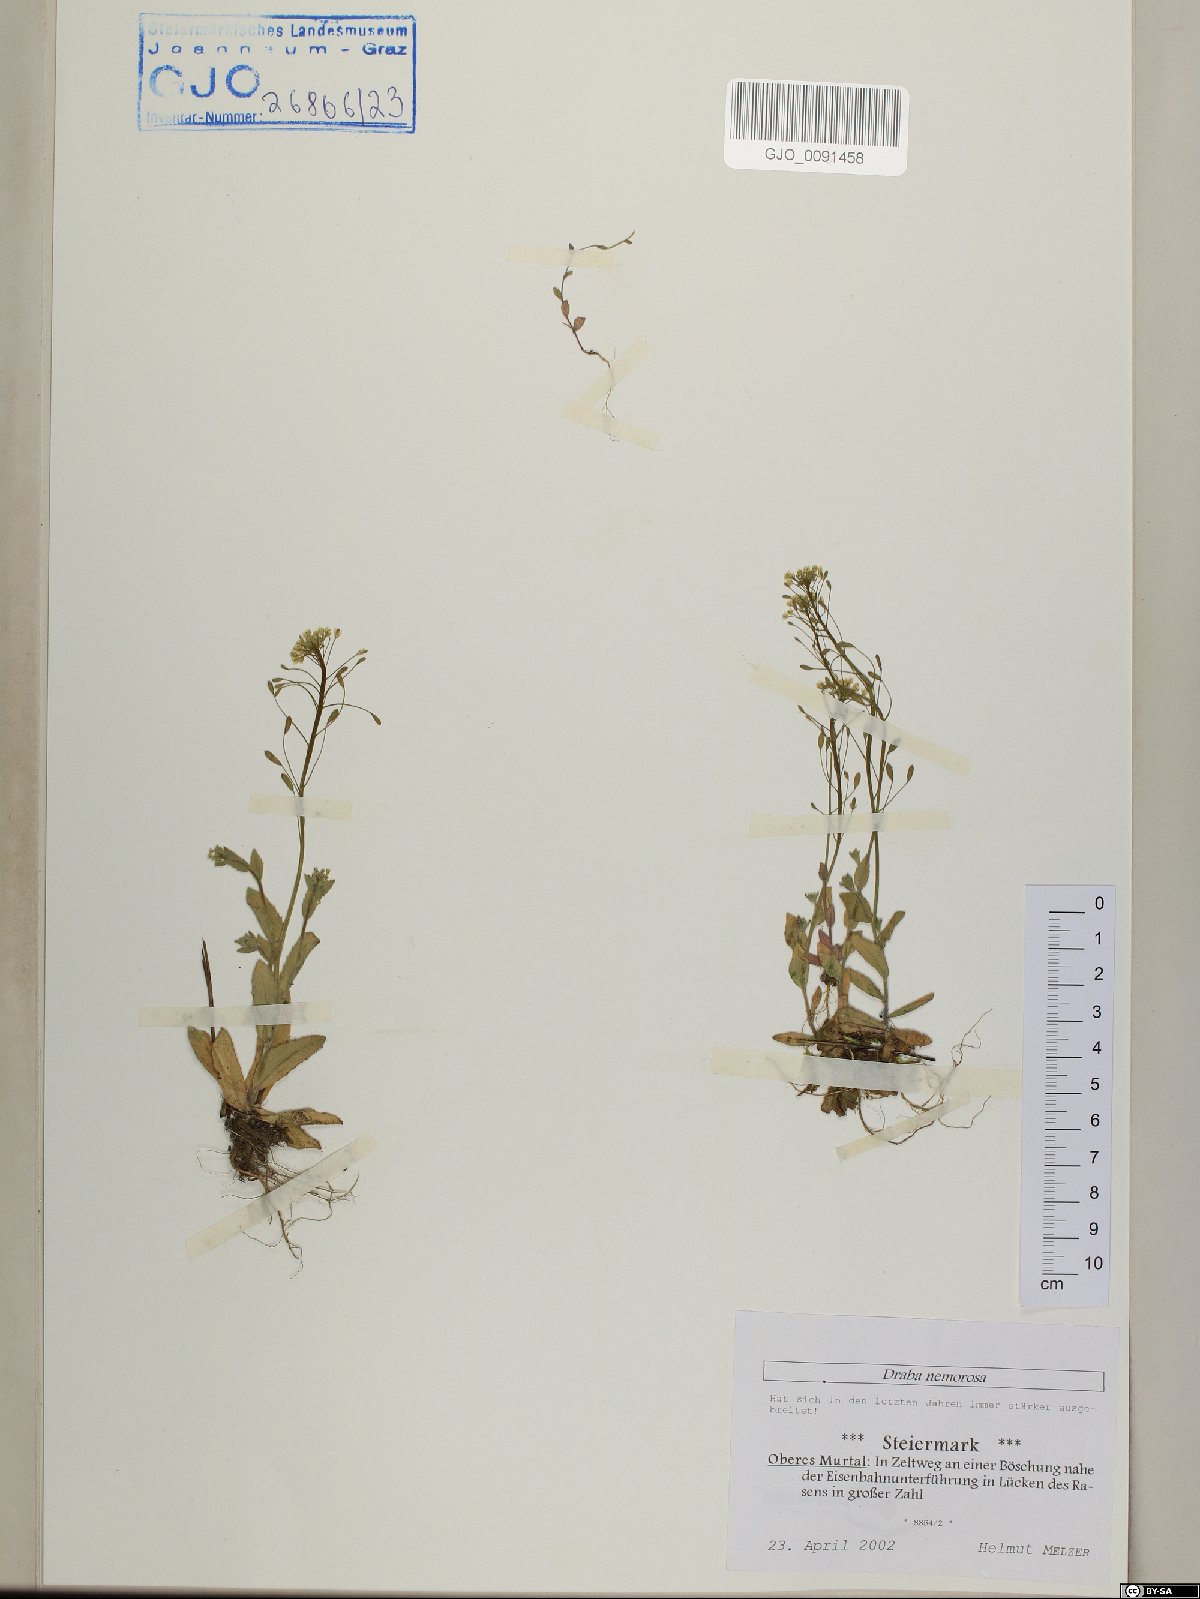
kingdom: Plantae
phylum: Tracheophyta
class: Magnoliopsida
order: Brassicales
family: Brassicaceae
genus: Draba
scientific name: Draba nemorosa
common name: Wood whitlow-grass
